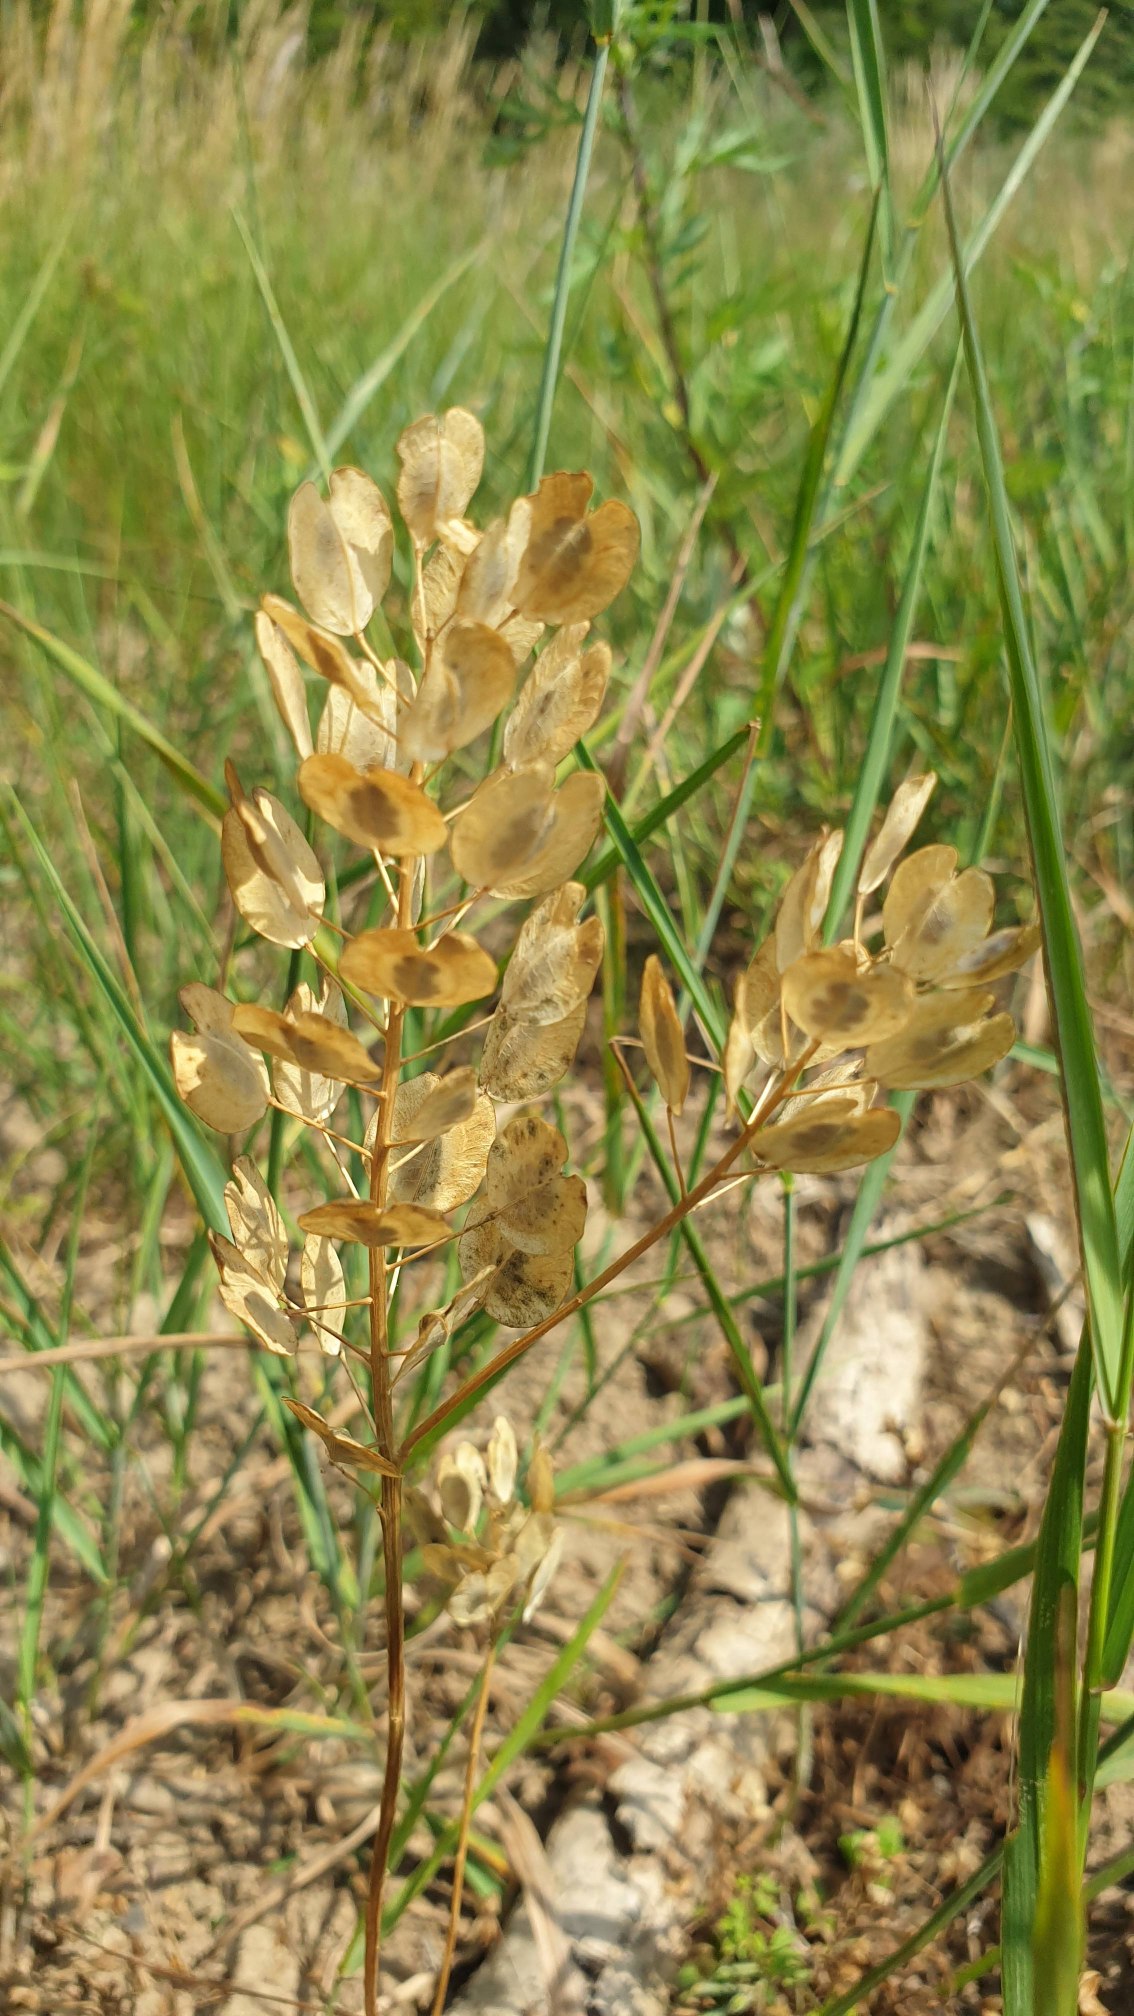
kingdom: Plantae
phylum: Tracheophyta
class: Magnoliopsida
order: Brassicales
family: Brassicaceae
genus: Thlaspi
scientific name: Thlaspi arvense
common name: Almindelig pengeurt
